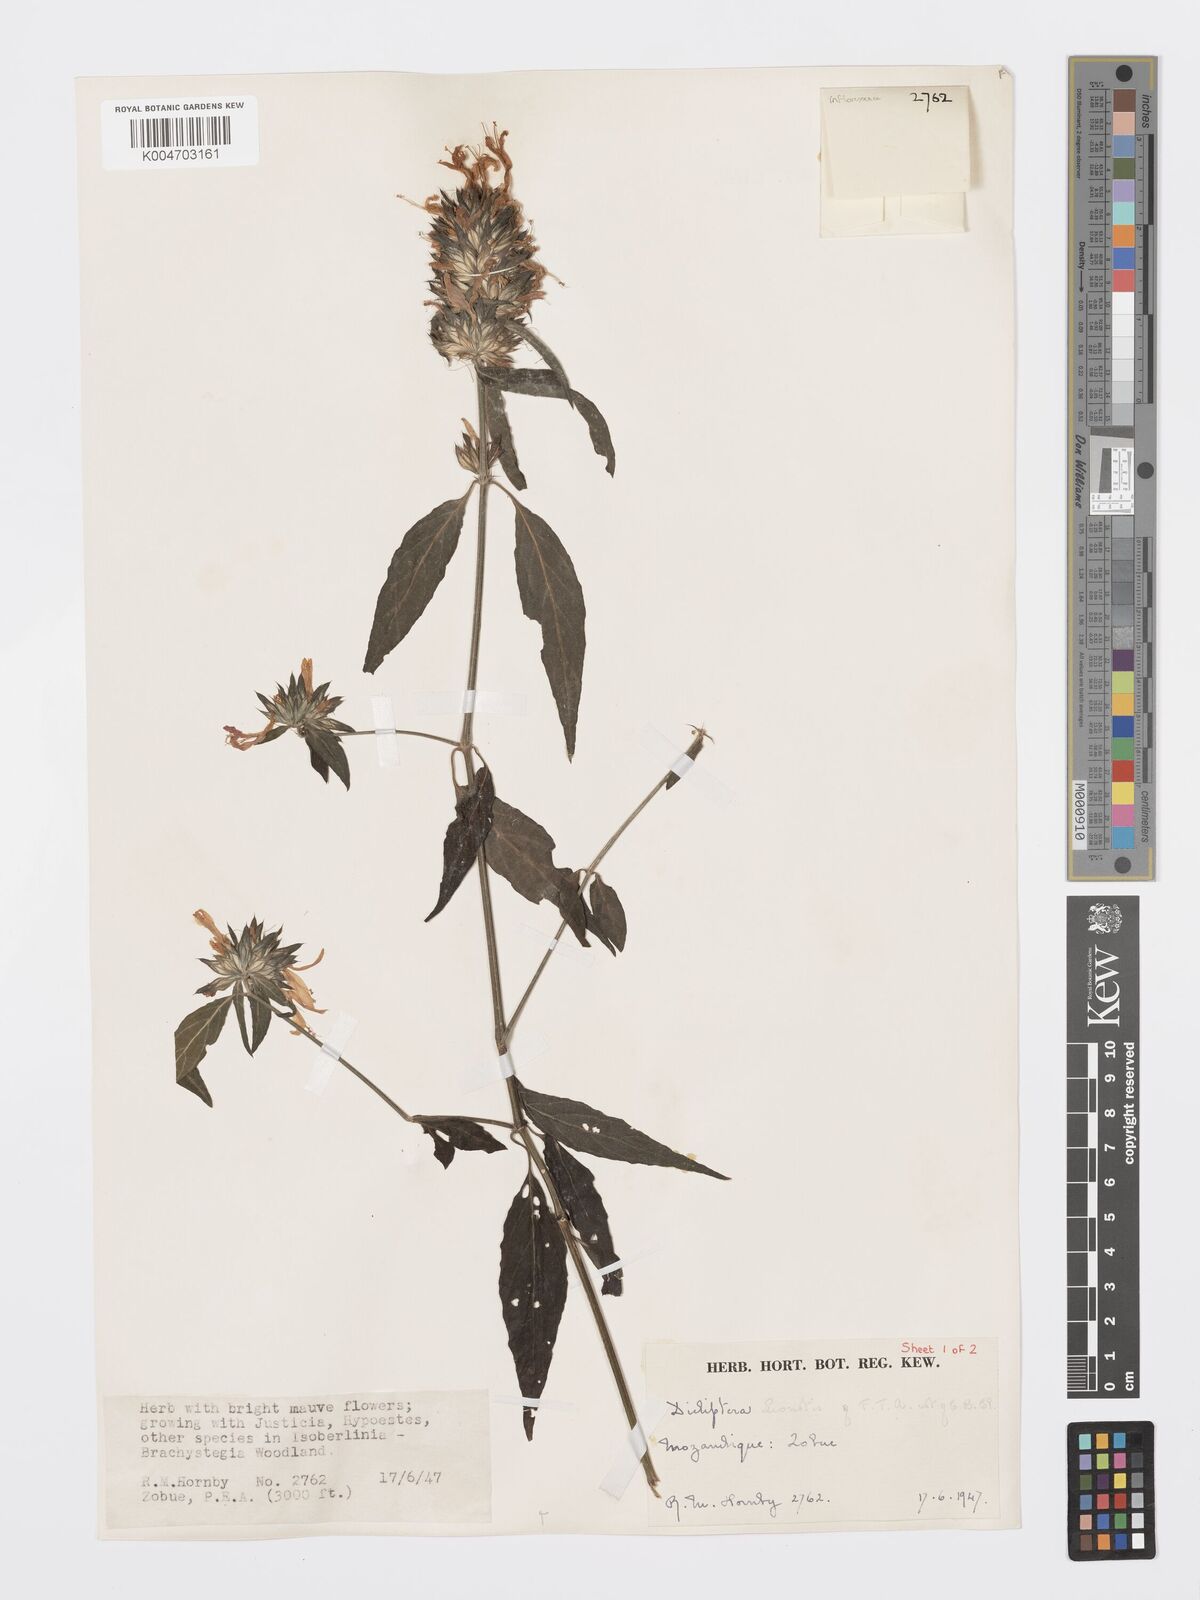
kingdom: Plantae
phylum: Tracheophyta
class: Magnoliopsida
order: Lamiales
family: Acanthaceae
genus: Dicliptera
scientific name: Dicliptera clinopodia
